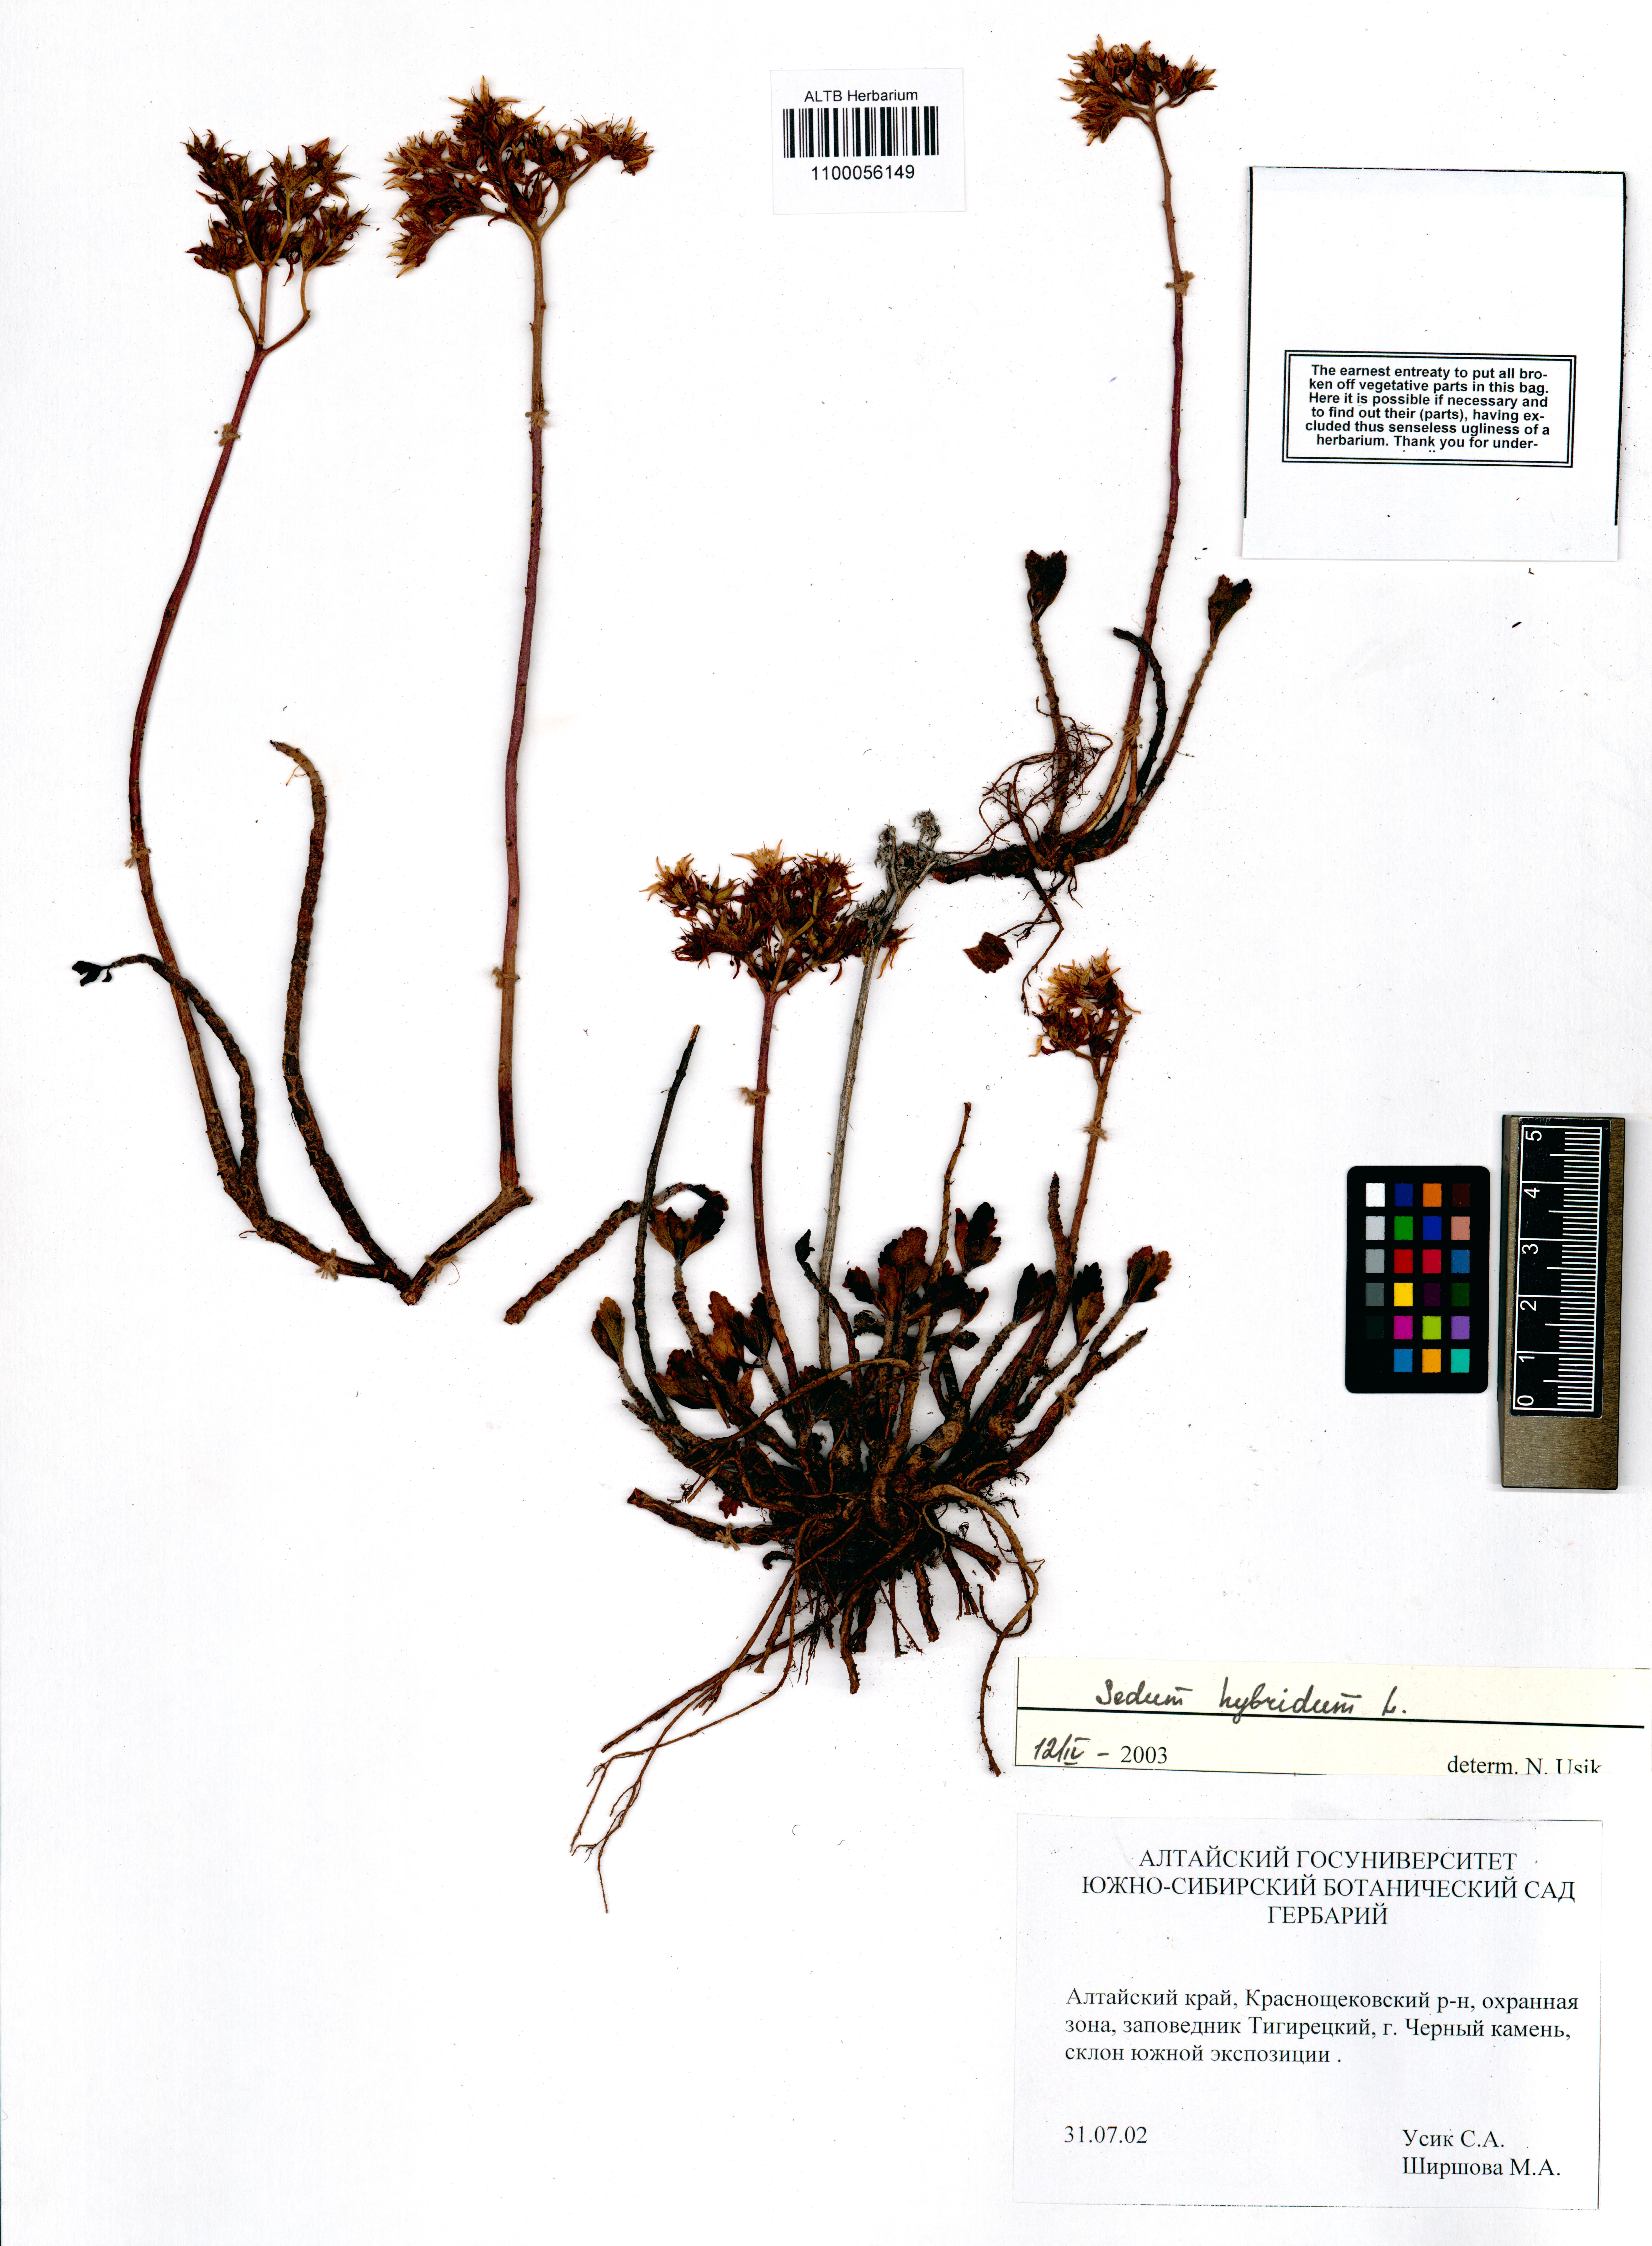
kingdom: Plantae
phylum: Tracheophyta
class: Magnoliopsida
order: Saxifragales
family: Crassulaceae
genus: Phedimus
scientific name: Phedimus hybridus
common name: Hybrid stonecrop
